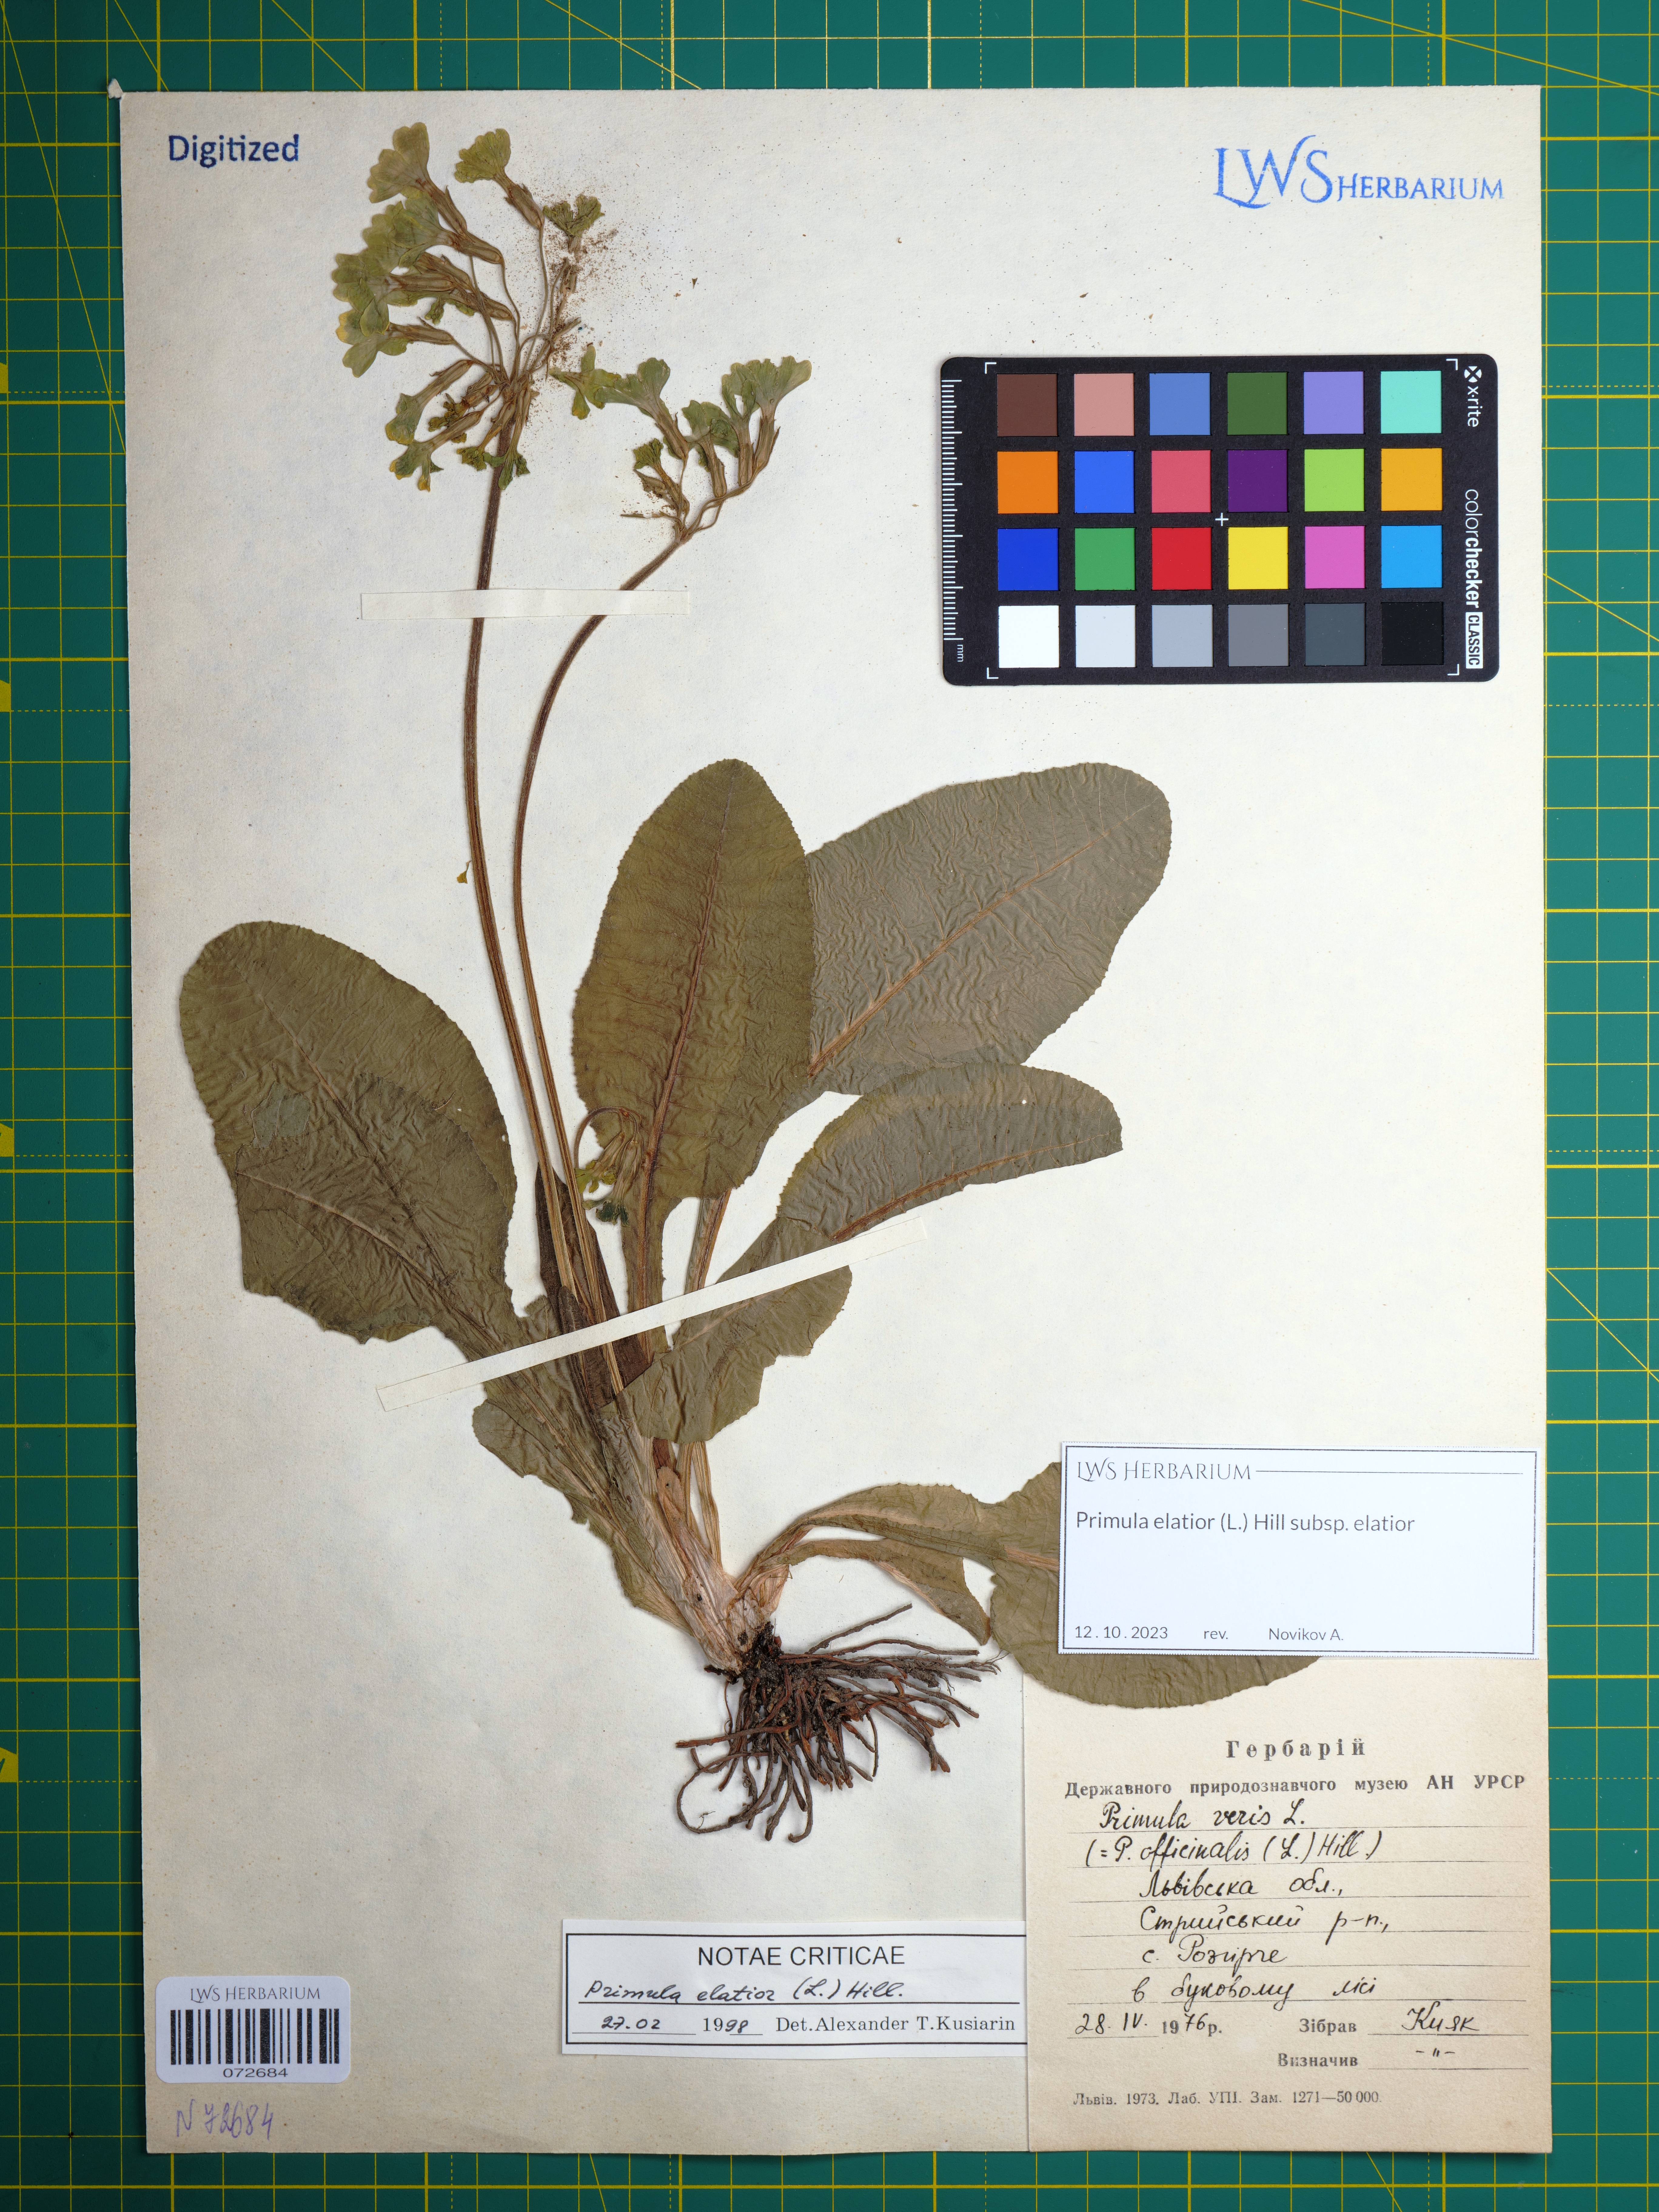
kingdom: Plantae
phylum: Tracheophyta
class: Magnoliopsida
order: Ericales
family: Primulaceae
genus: Primula
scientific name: Primula elatior
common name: Oxlip
